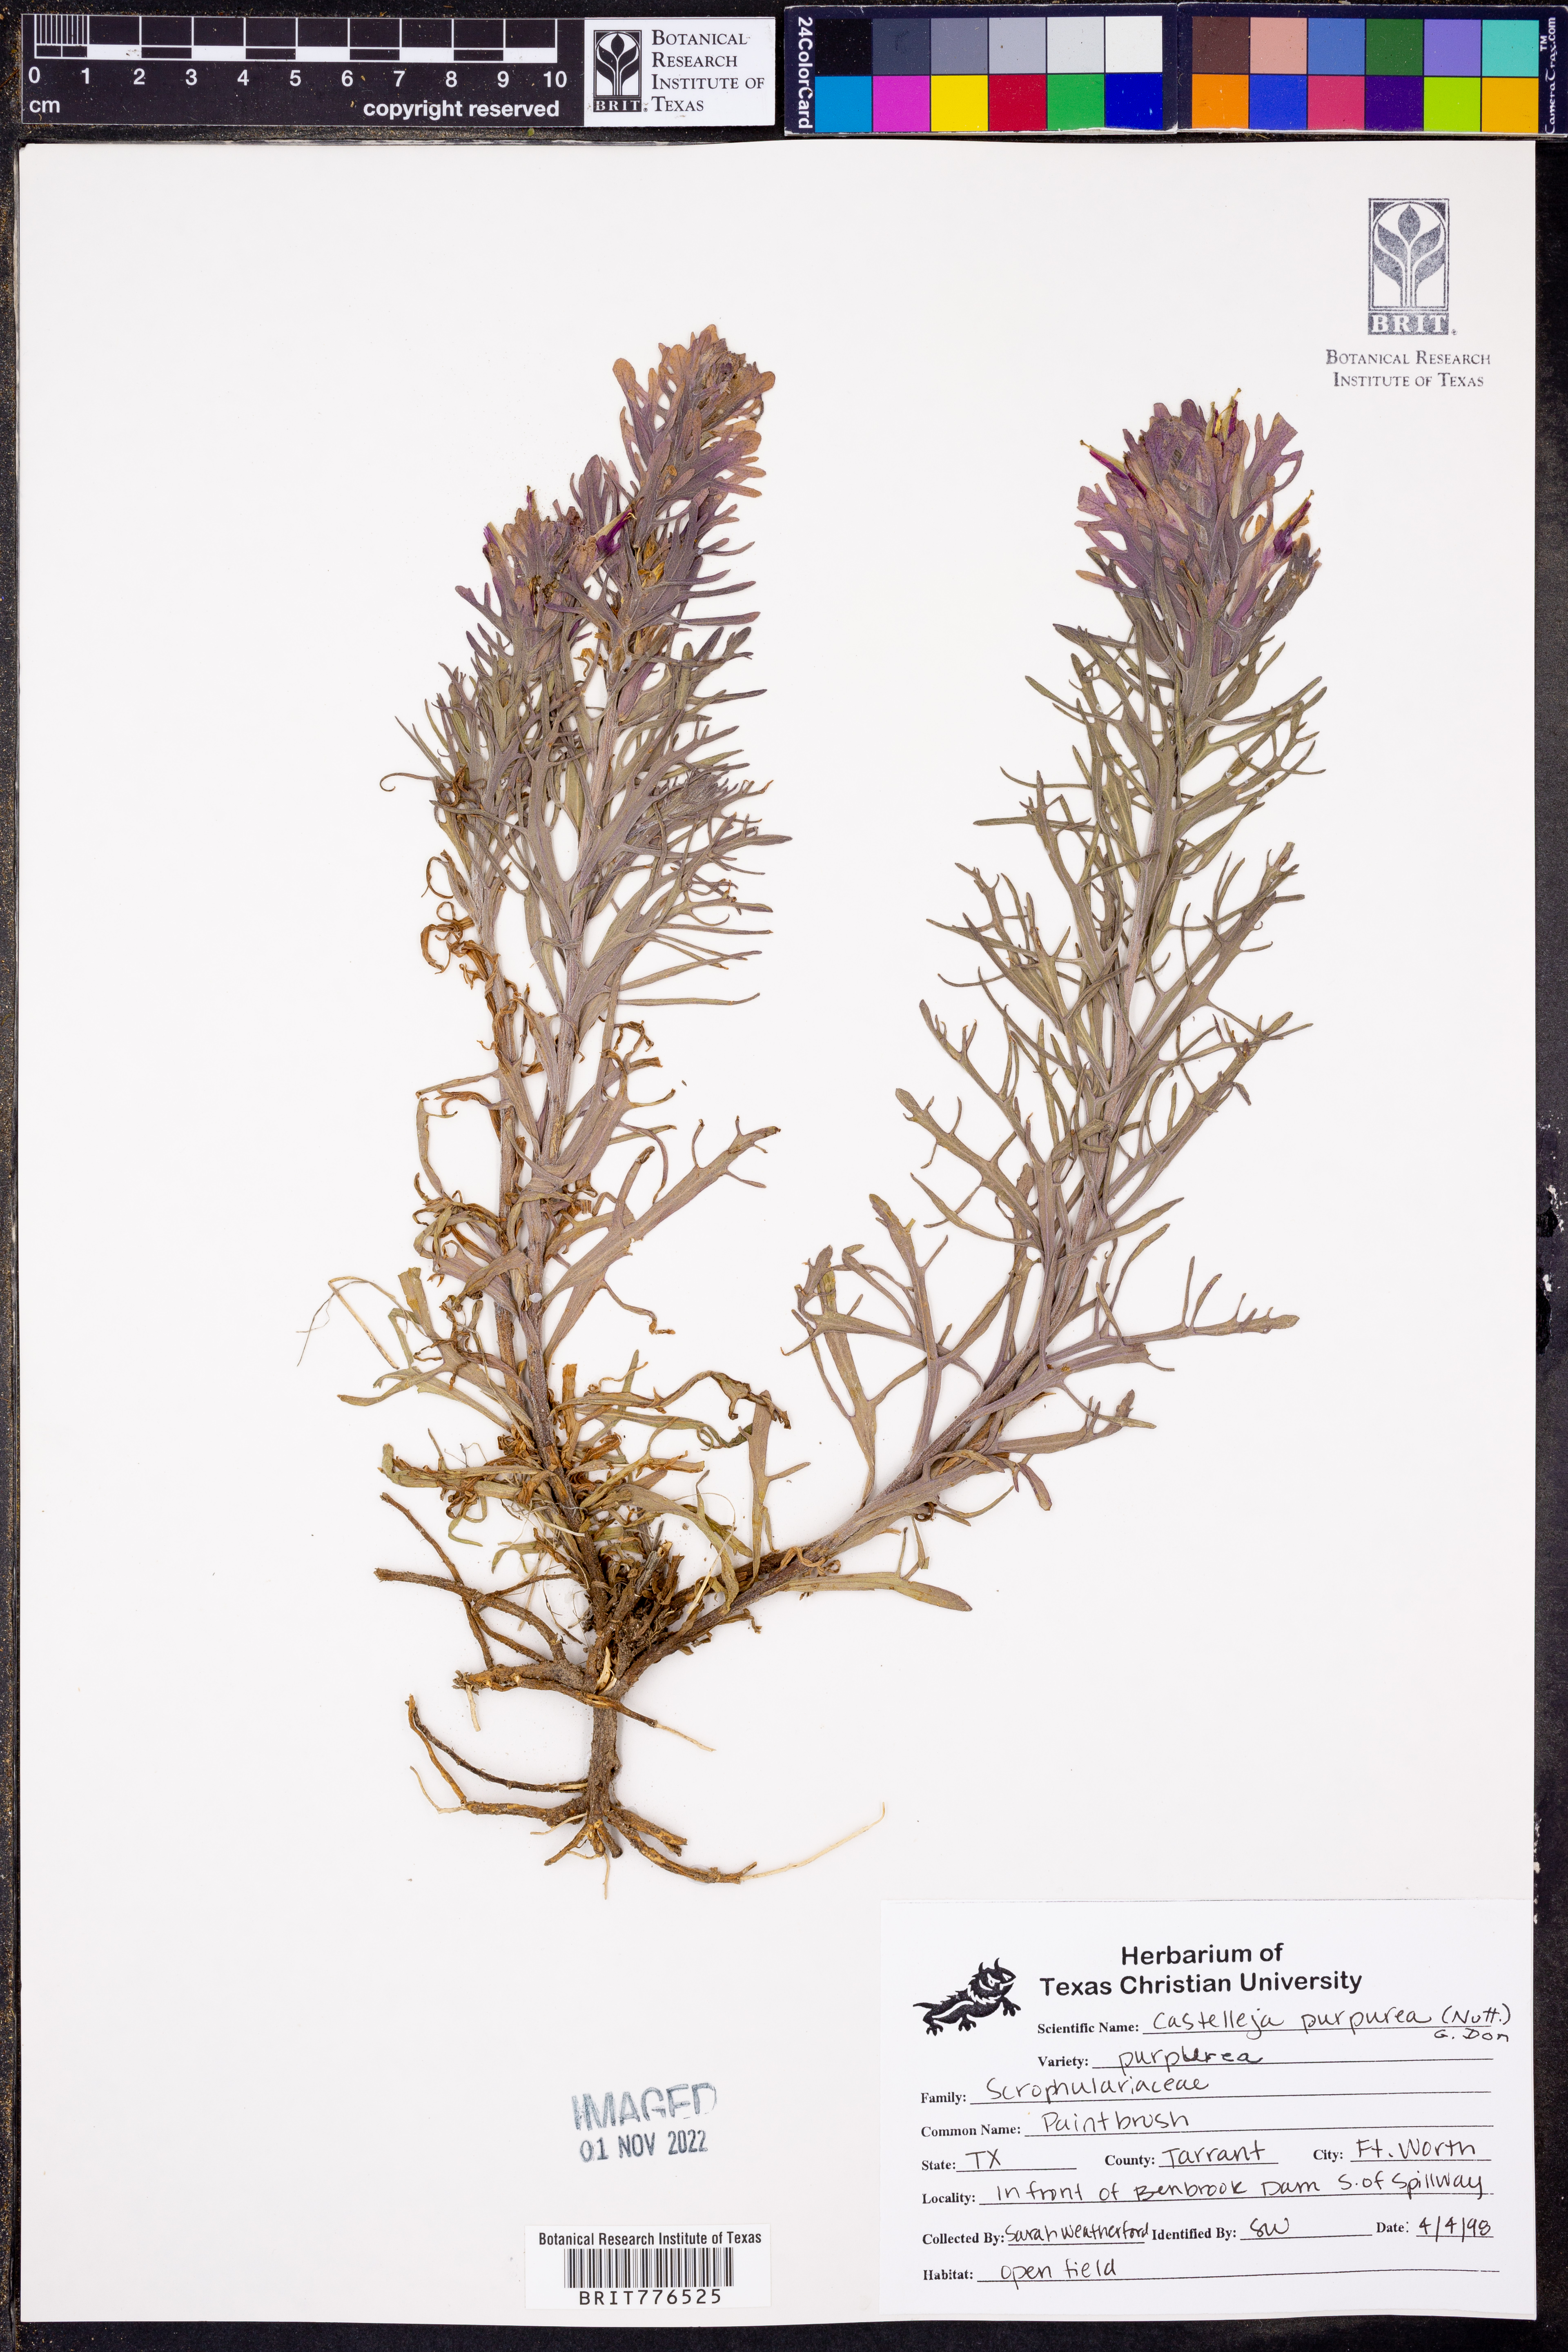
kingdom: Plantae
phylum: Tracheophyta
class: Magnoliopsida
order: Lamiales
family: Orobanchaceae
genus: Castilleja
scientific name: Castilleja purpurea
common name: Plains paintbrush
